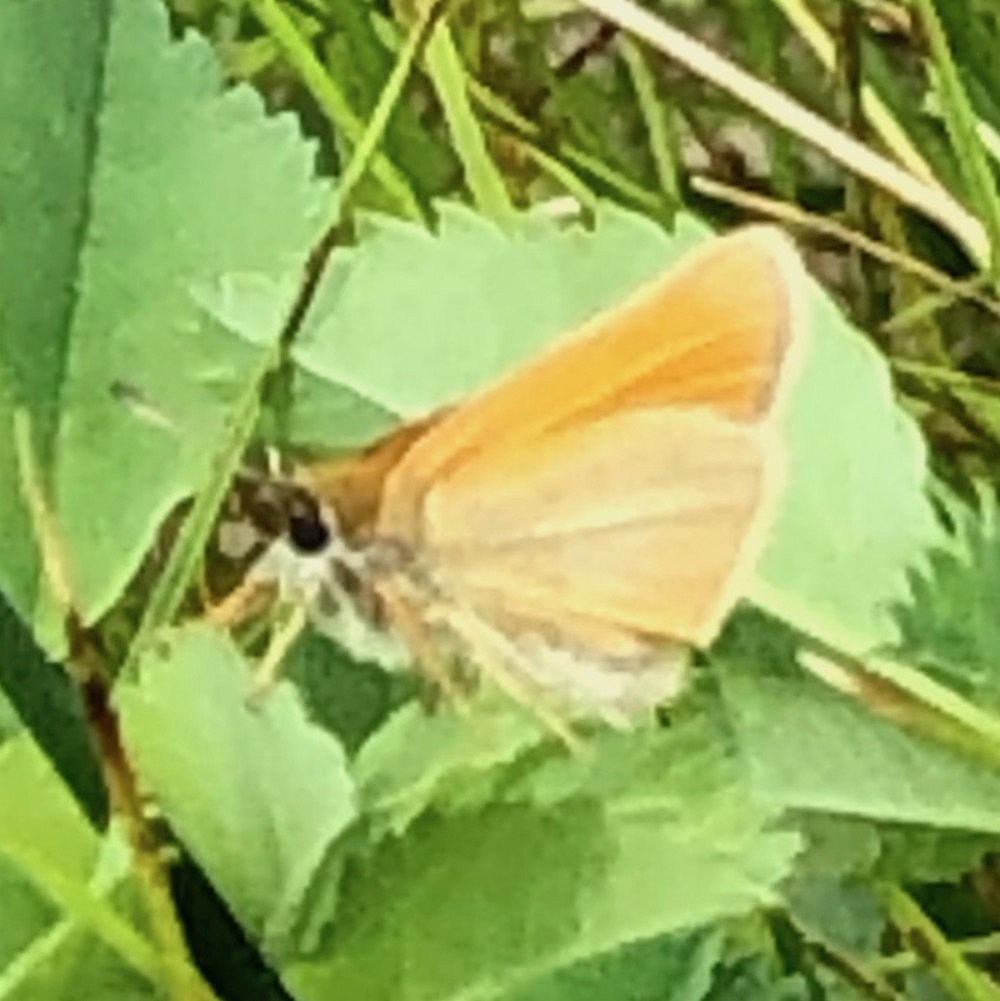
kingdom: Animalia
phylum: Arthropoda
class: Insecta
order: Lepidoptera
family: Hesperiidae
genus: Oarisma
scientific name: Oarisma garita
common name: Garita Skipperling
